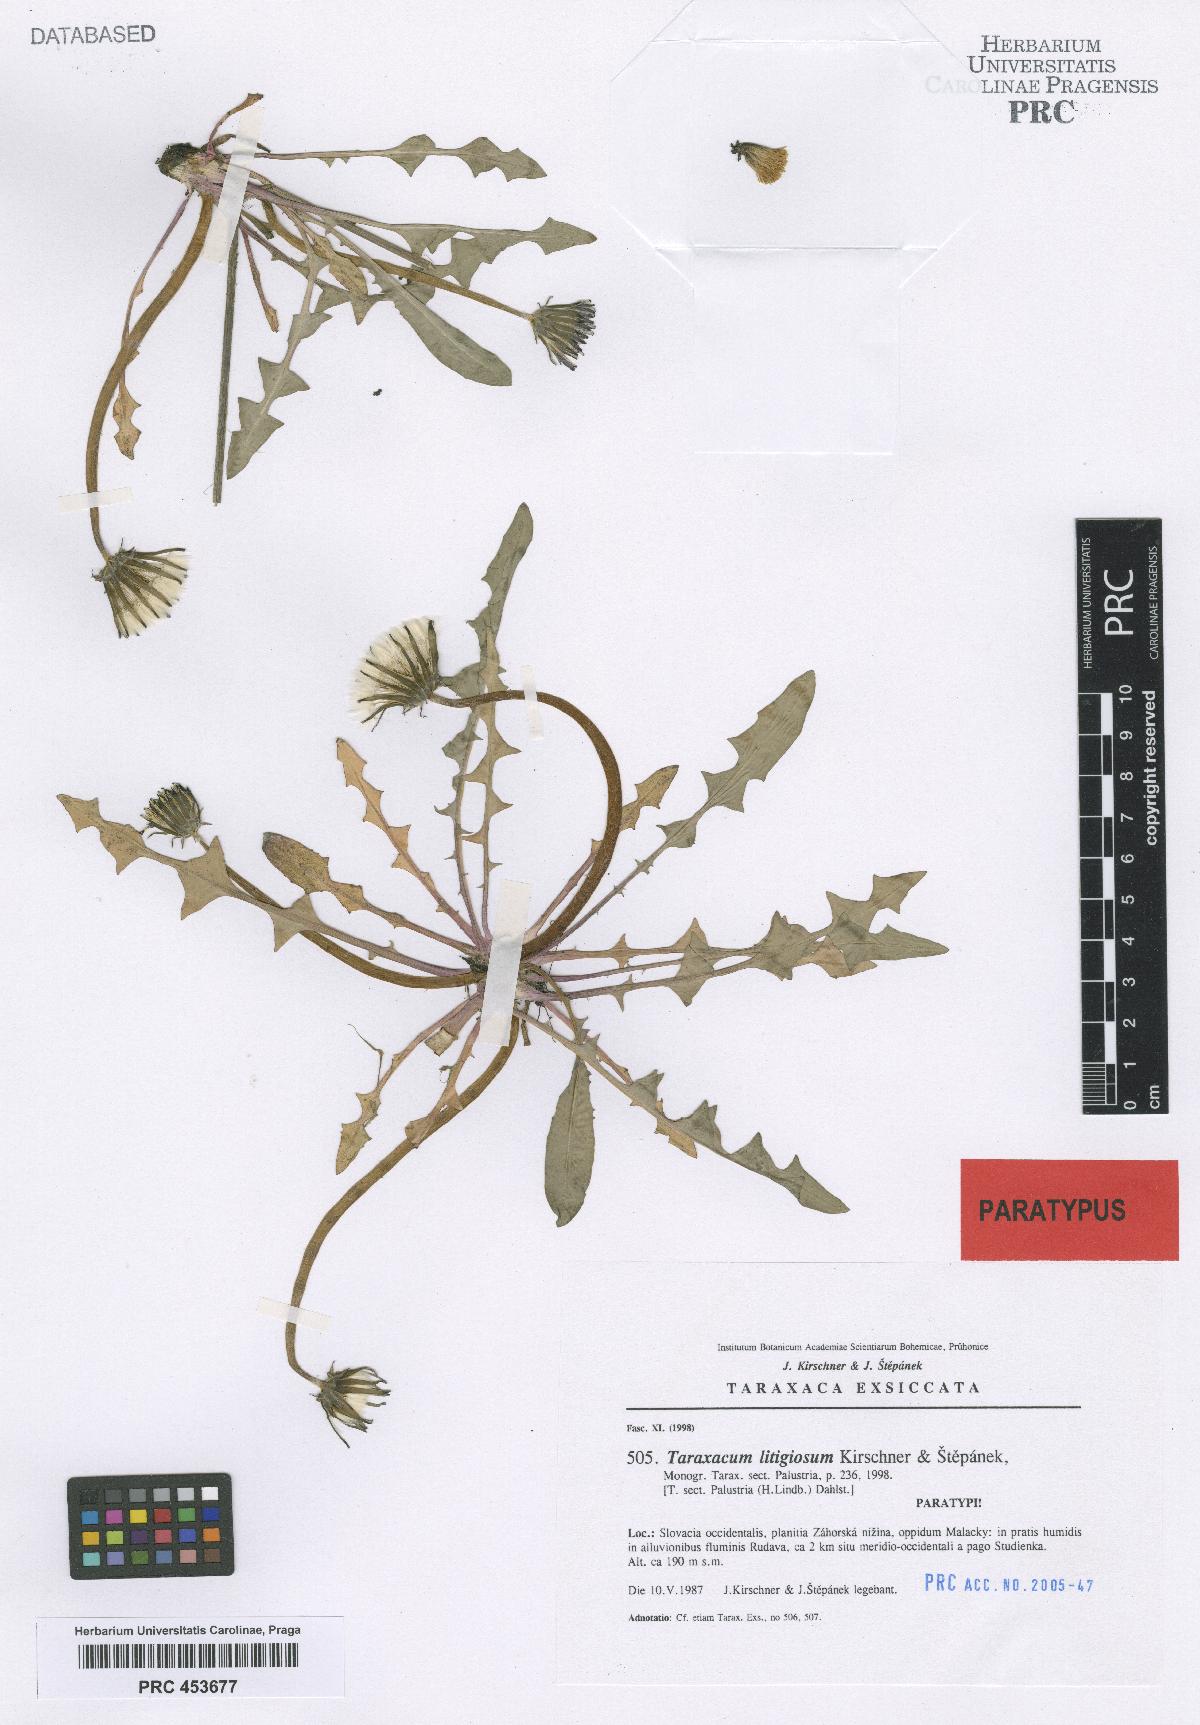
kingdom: Plantae
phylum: Tracheophyta
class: Magnoliopsida
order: Asterales
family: Asteraceae
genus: Taraxacum
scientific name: Taraxacum litigiosum
